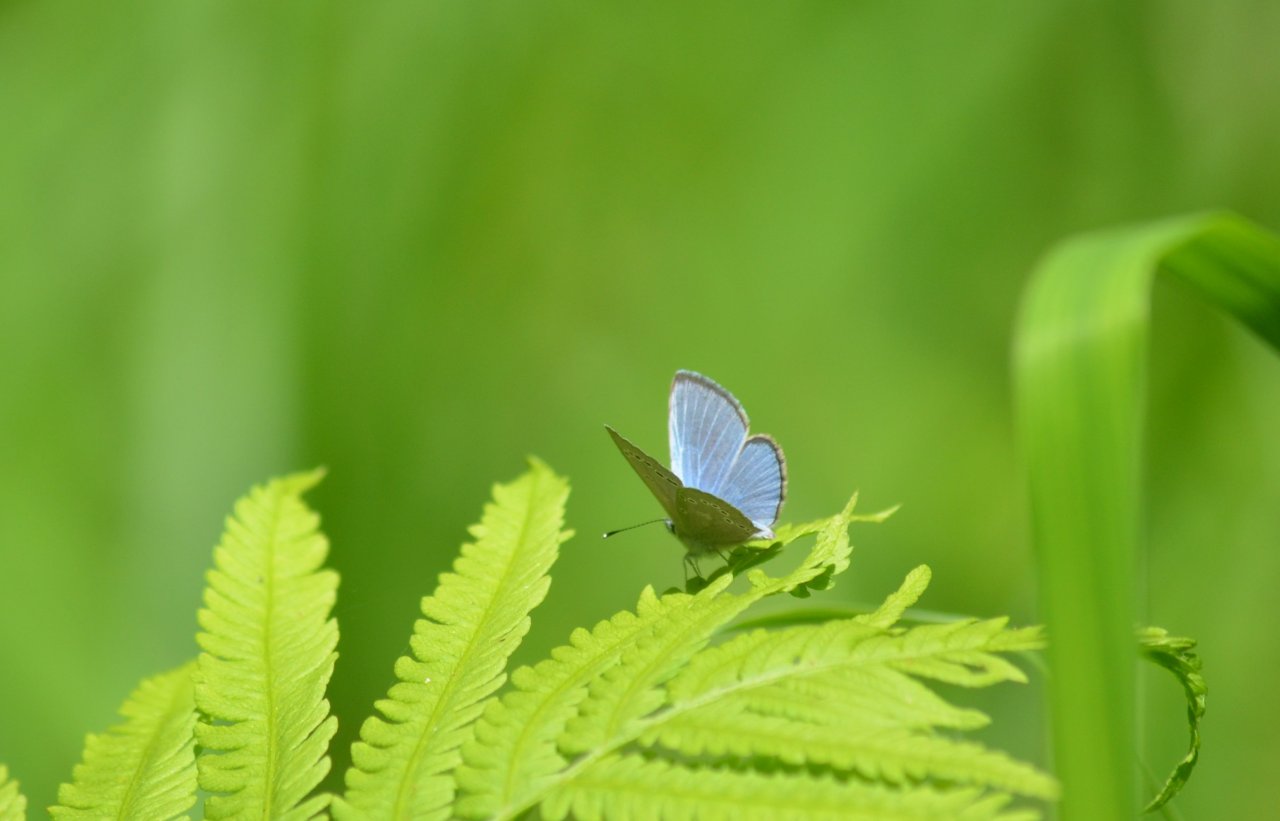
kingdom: Animalia
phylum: Arthropoda
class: Insecta
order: Lepidoptera
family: Lycaenidae
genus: Glaucopsyche
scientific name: Glaucopsyche lygdamus
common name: Silvery Blue
